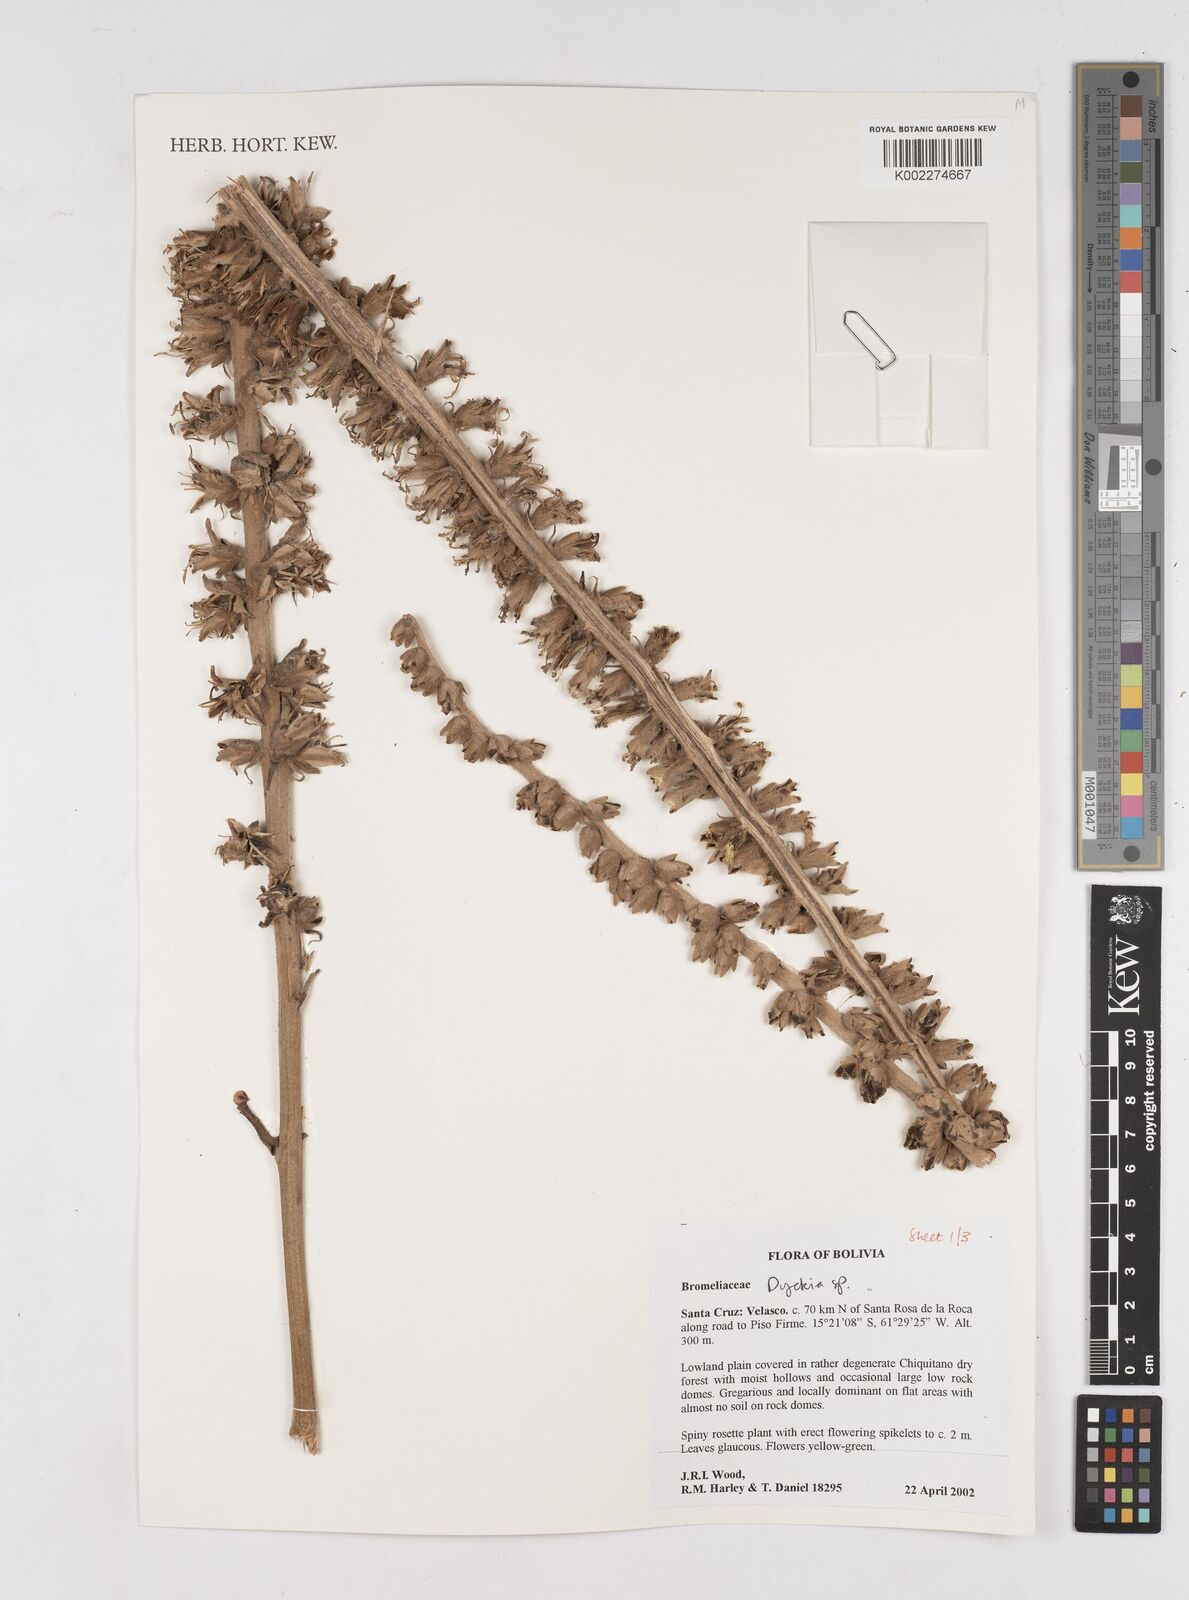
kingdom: Plantae
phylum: Tracheophyta
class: Liliopsida
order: Poales
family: Bromeliaceae
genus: Dyckia
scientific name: Dyckia
